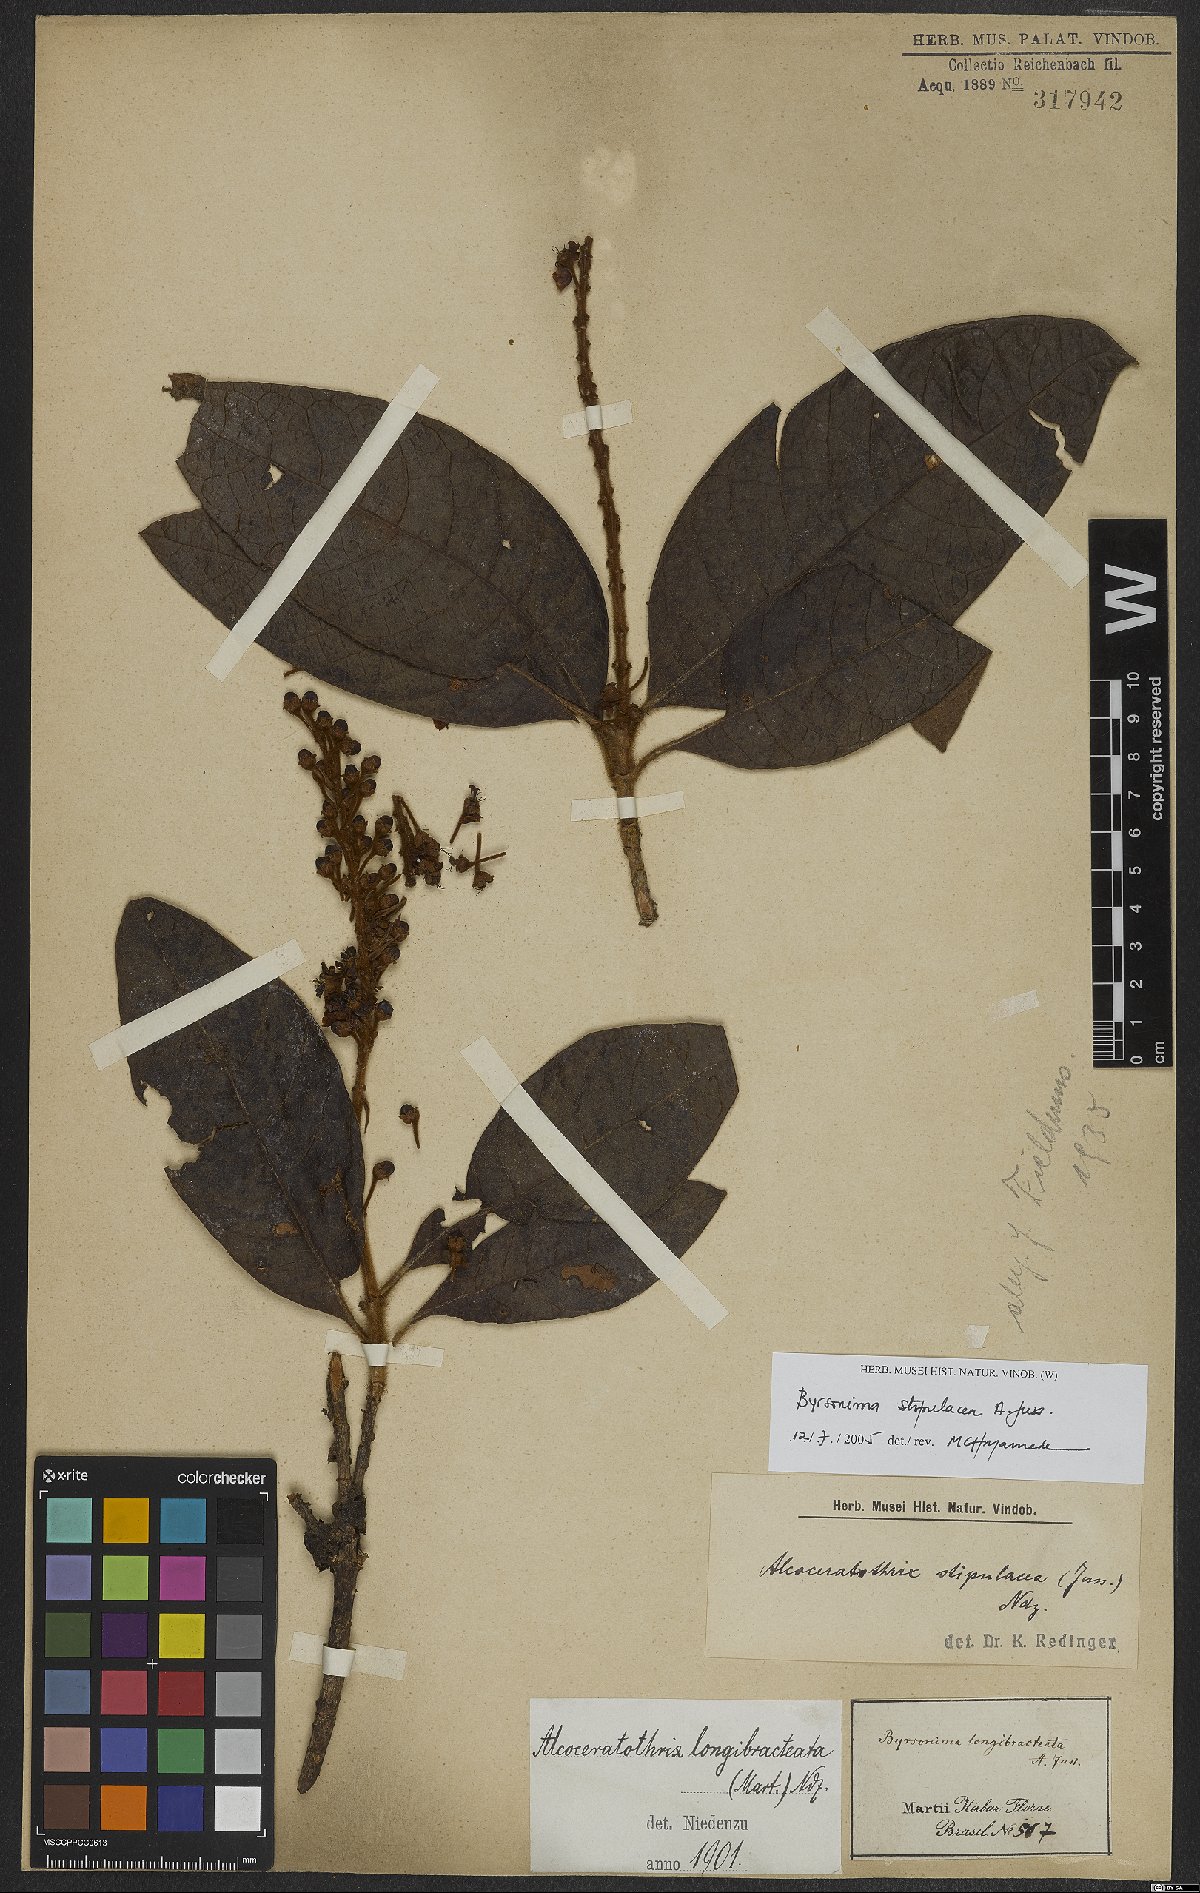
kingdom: Plantae
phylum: Tracheophyta
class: Magnoliopsida
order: Malpighiales
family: Malpighiaceae
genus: Byrsonima
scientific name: Byrsonima stipulacea
